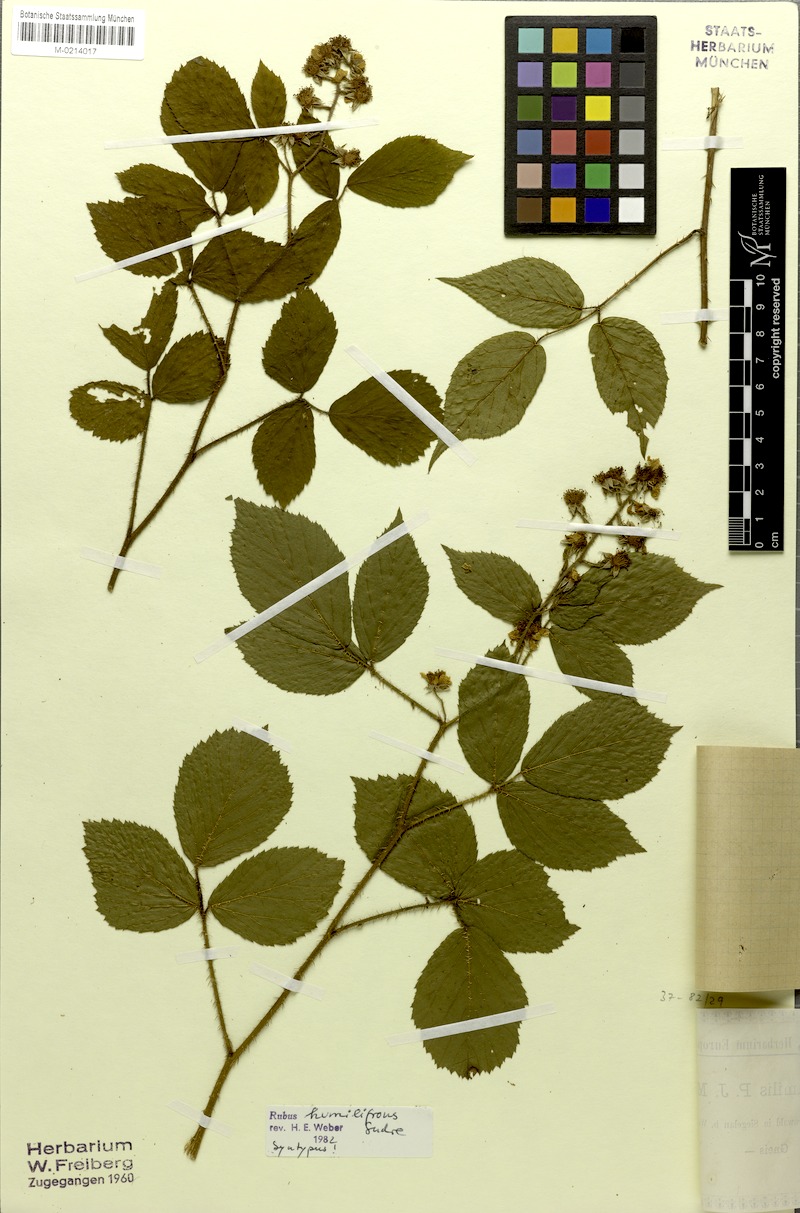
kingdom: Plantae
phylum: Tracheophyta
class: Magnoliopsida
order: Rosales
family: Rosaceae
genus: Rubus
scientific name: Rubus rivularis
